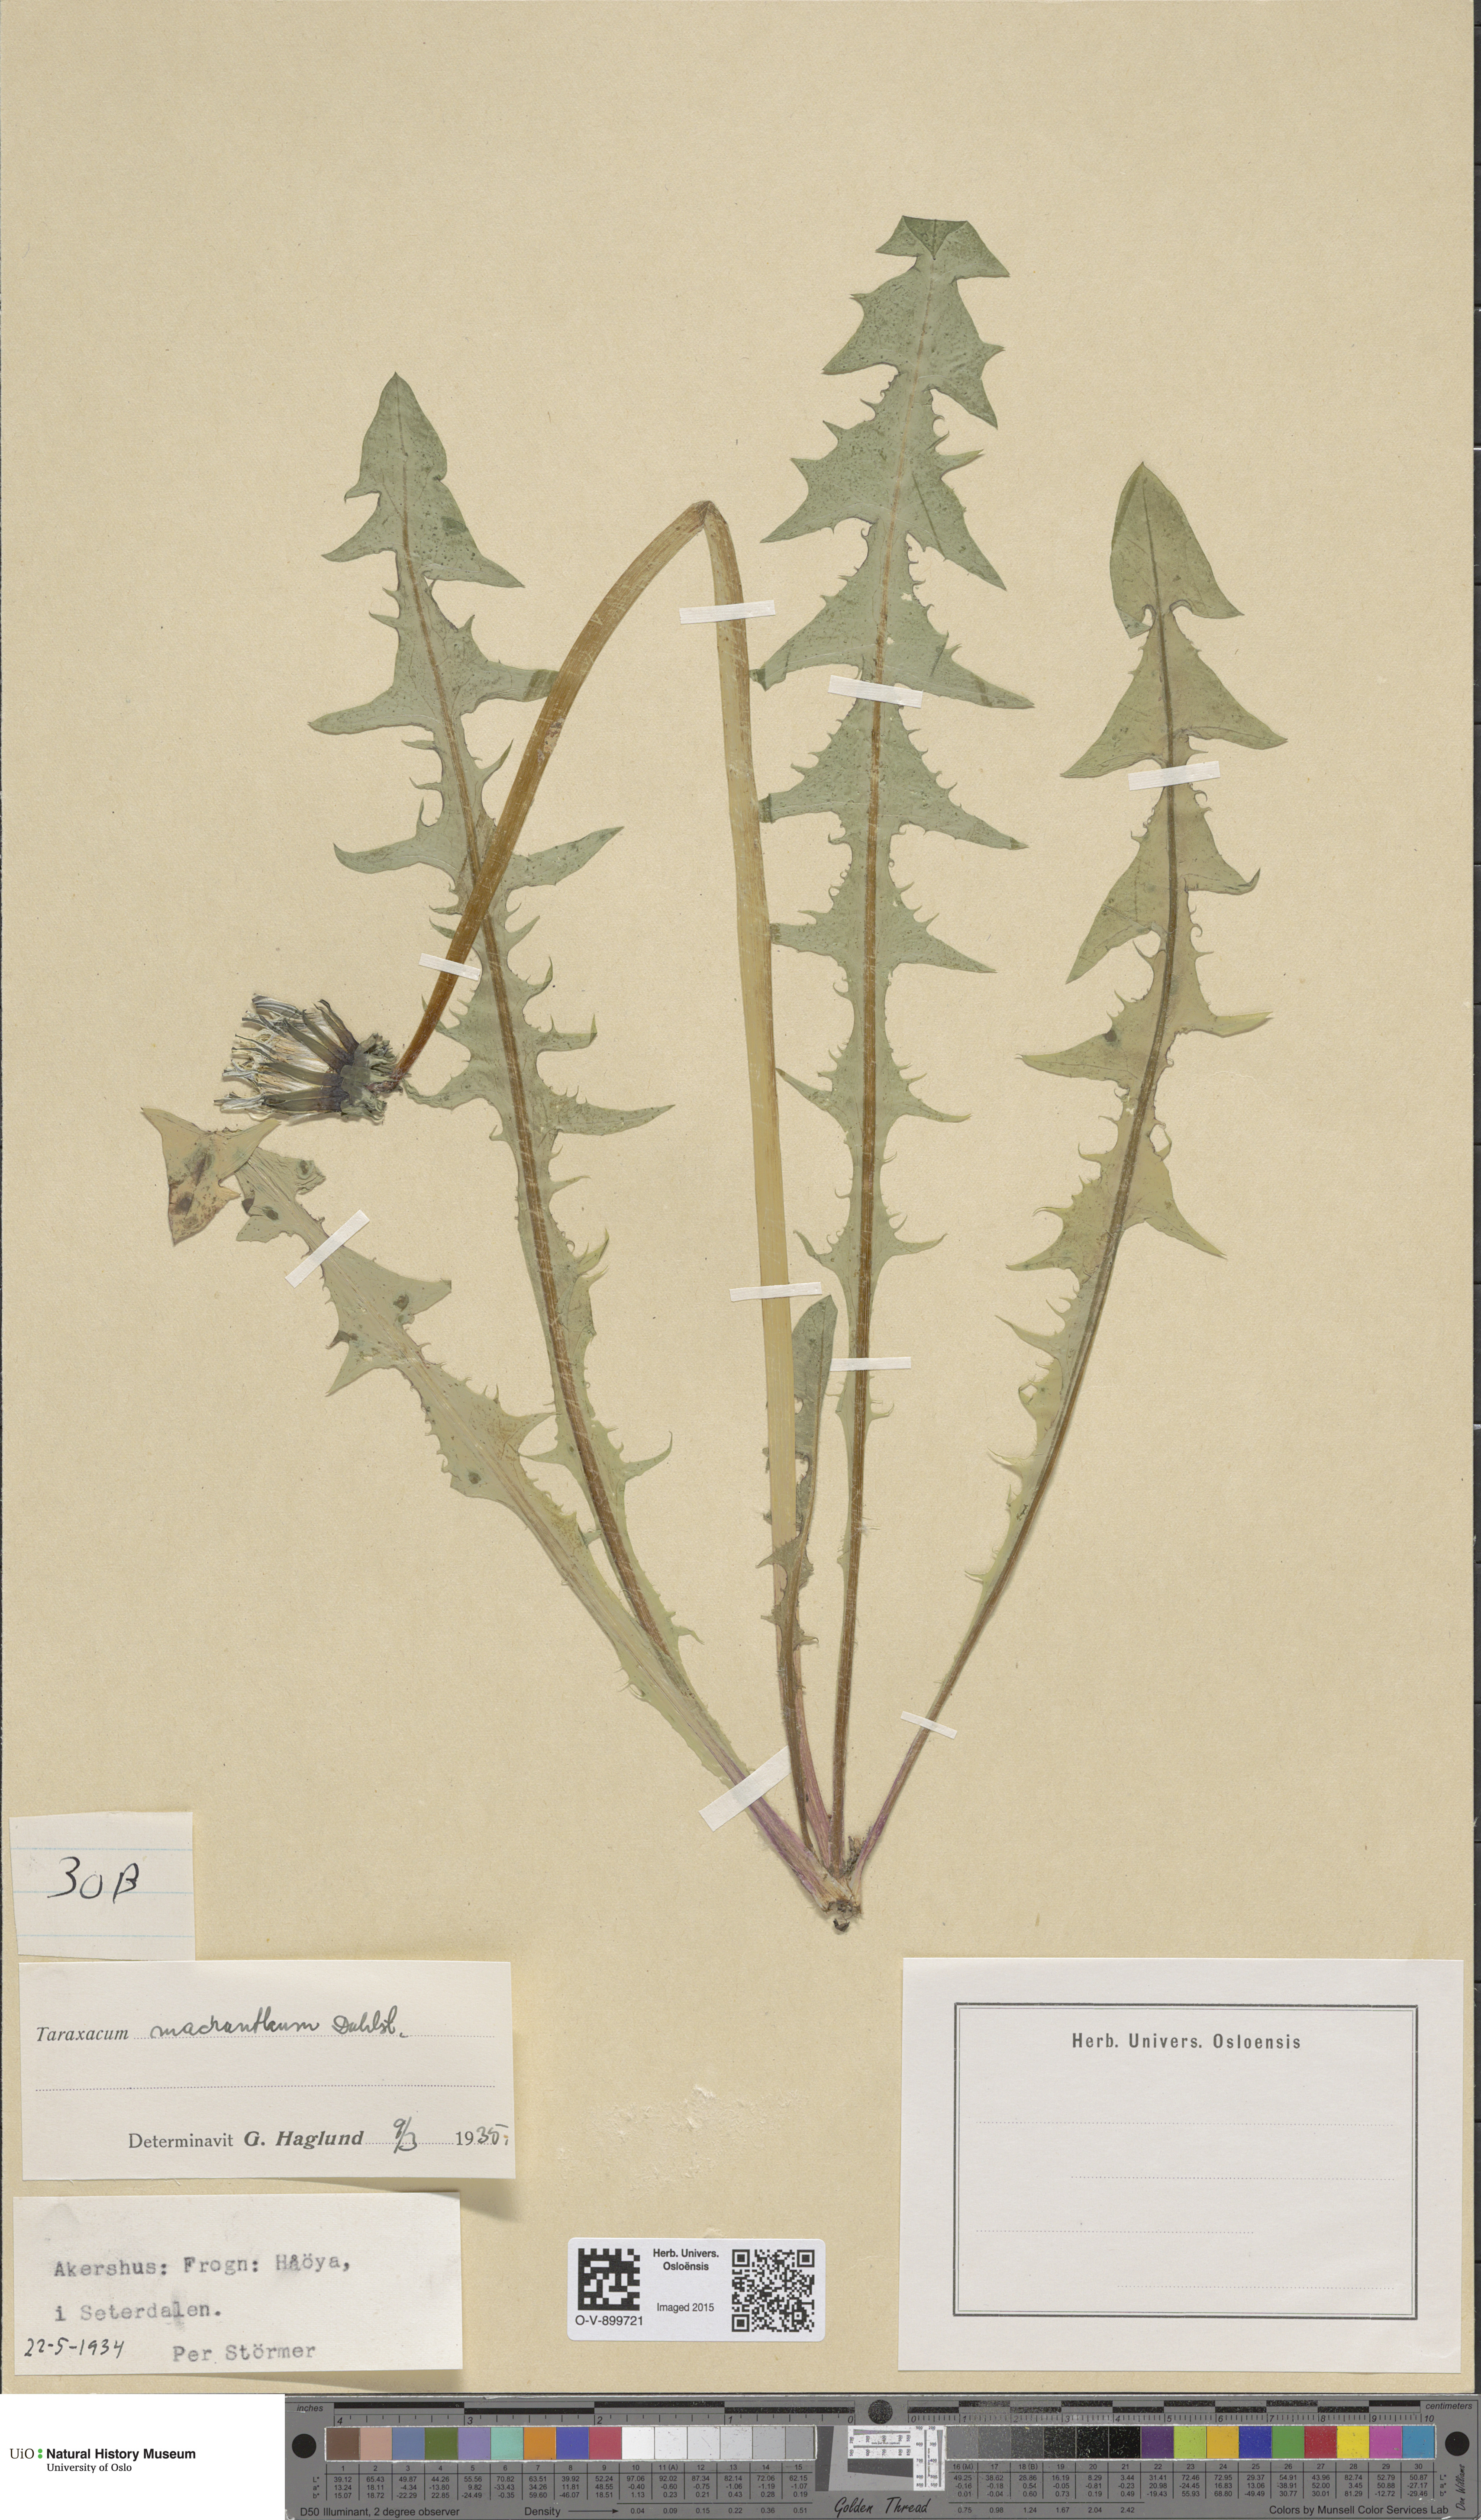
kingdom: Plantae
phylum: Tracheophyta
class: Magnoliopsida
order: Asterales
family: Asteraceae
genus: Taraxacum
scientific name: Taraxacum praeradians
